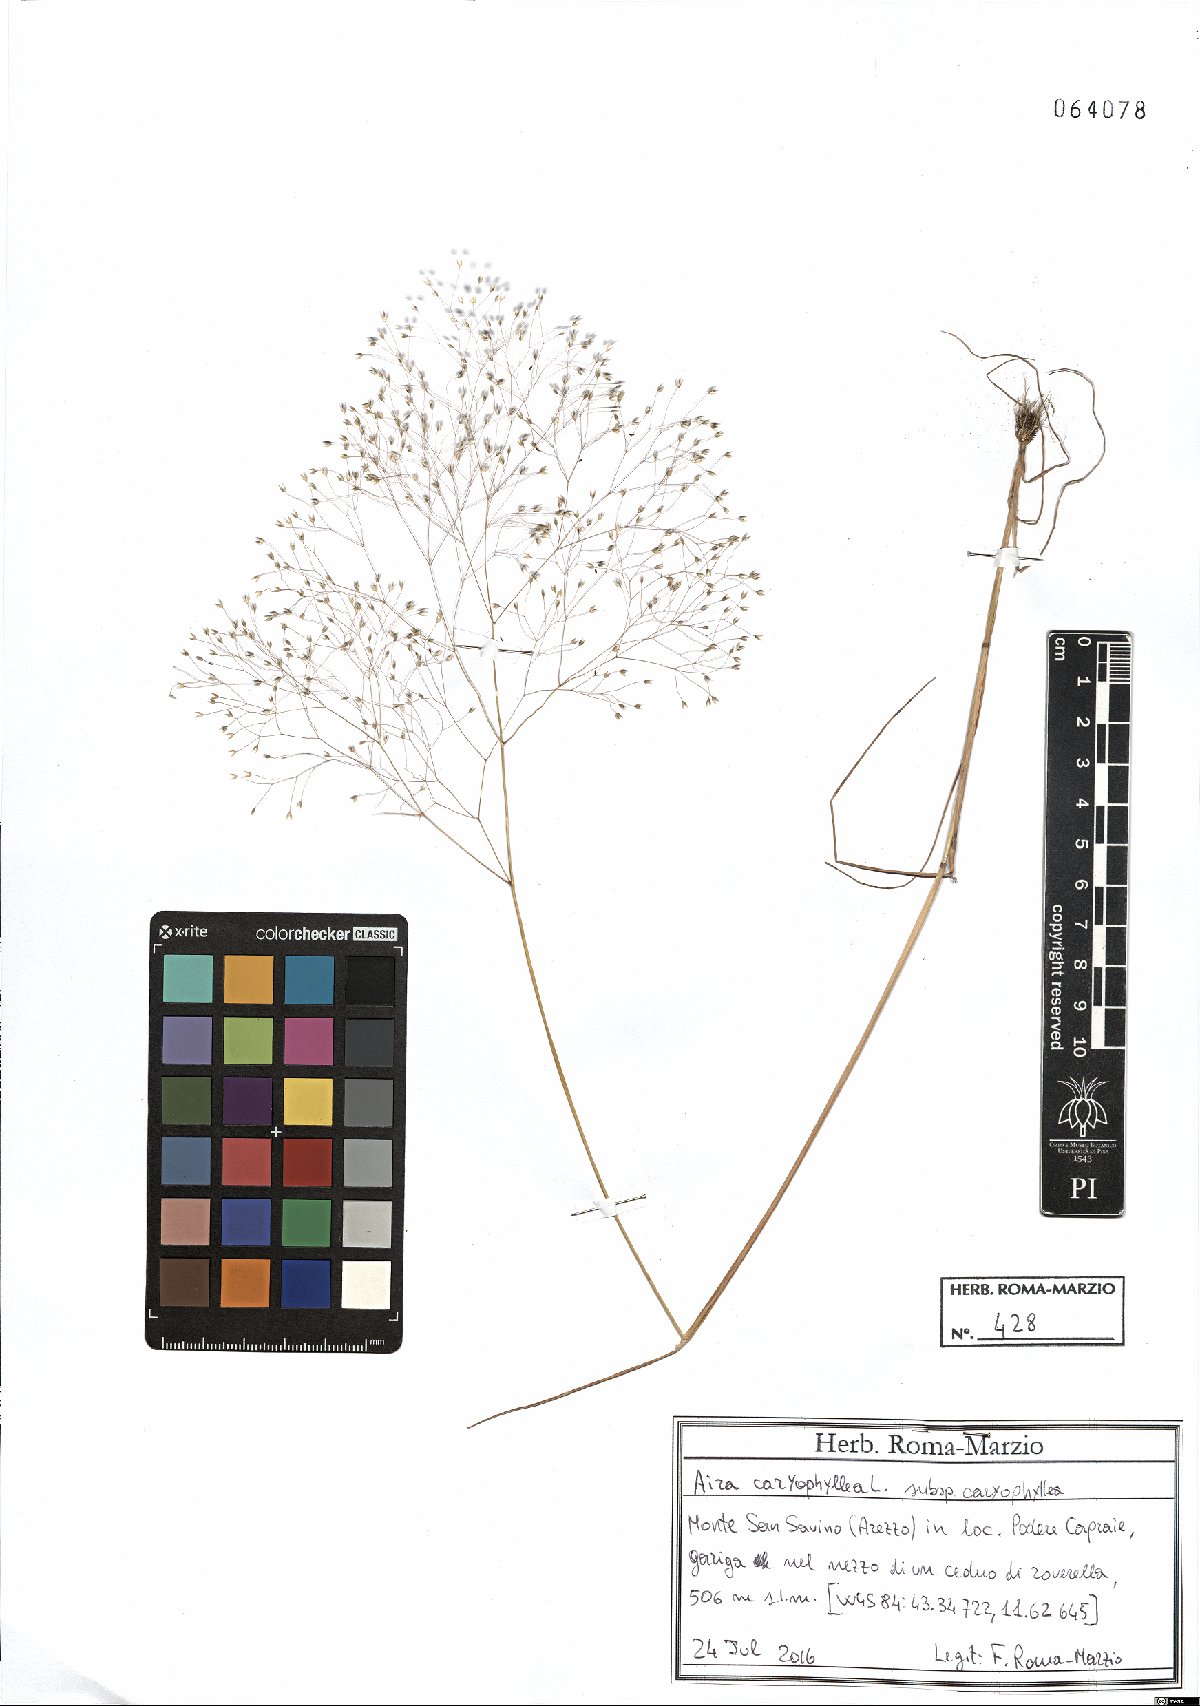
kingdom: Plantae
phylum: Tracheophyta
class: Liliopsida
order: Poales
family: Poaceae
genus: Aira
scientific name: Aira caryophyllea
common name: Silver hairgrass
